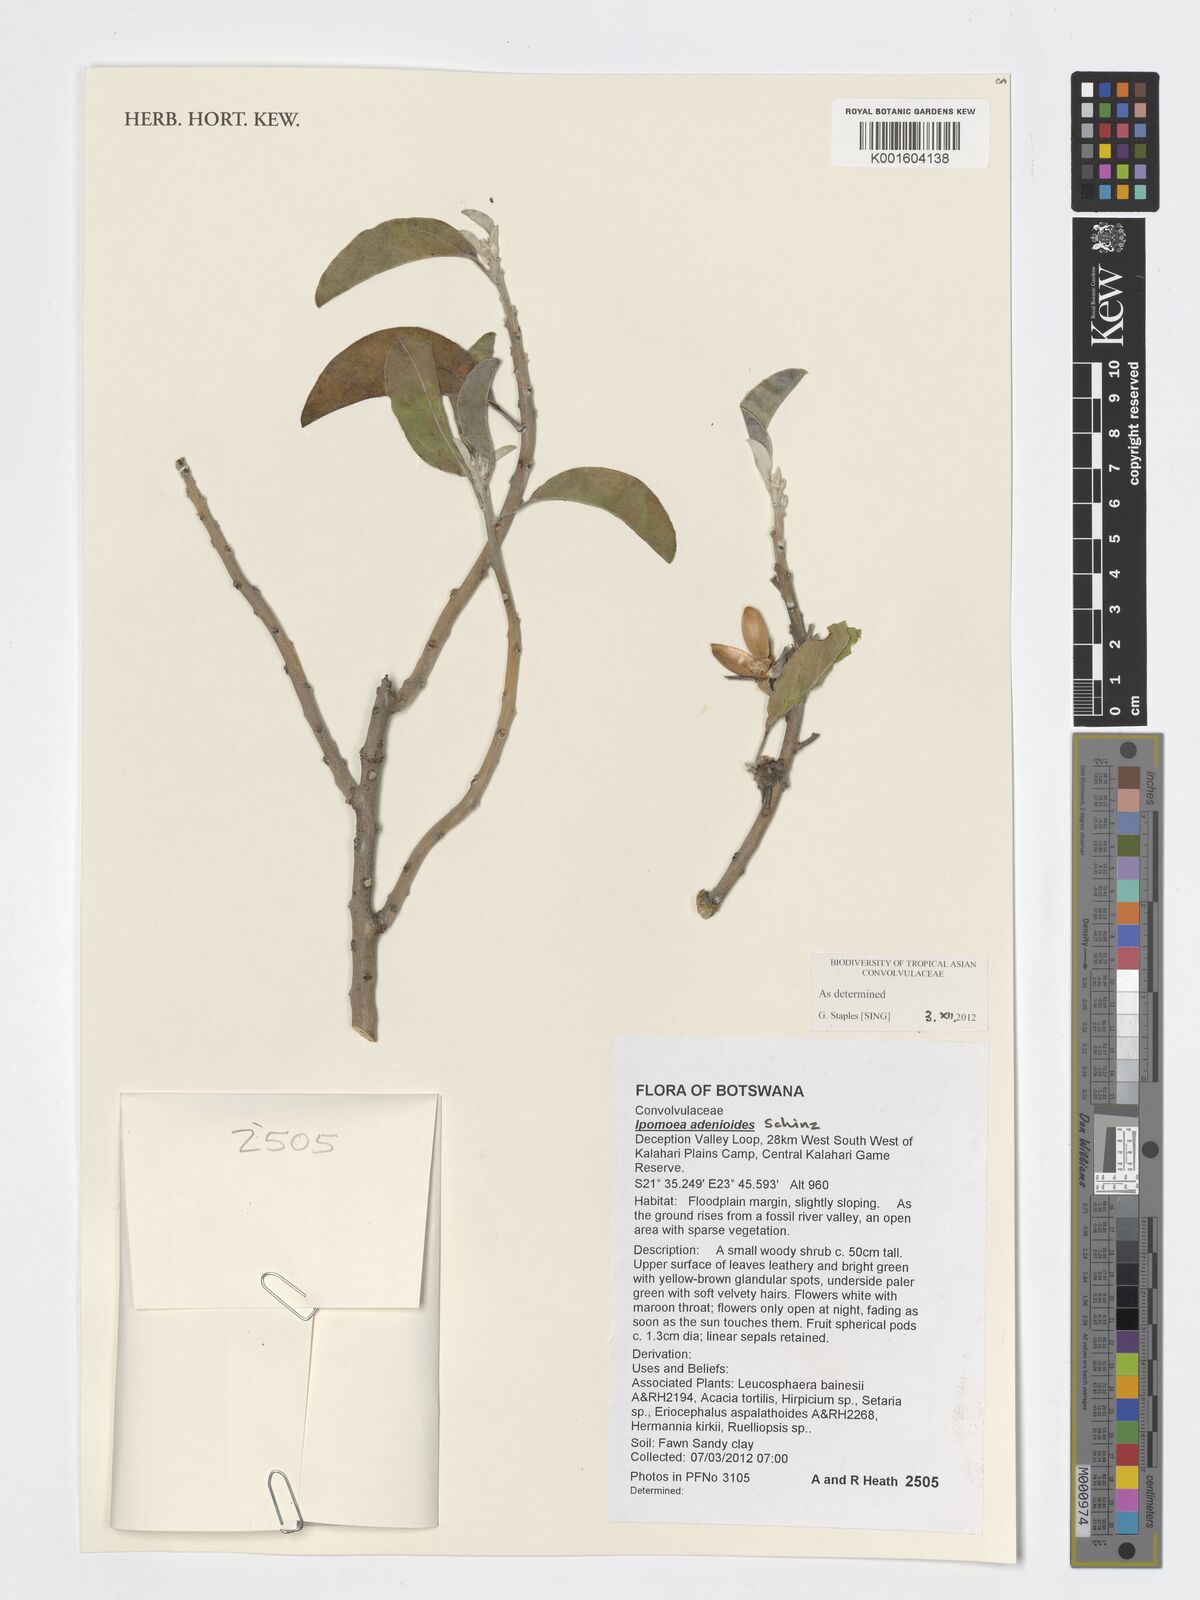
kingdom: Plantae
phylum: Tracheophyta
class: Magnoliopsida
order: Solanales
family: Convolvulaceae
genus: Ipomoea
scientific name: Ipomoea adenioides
